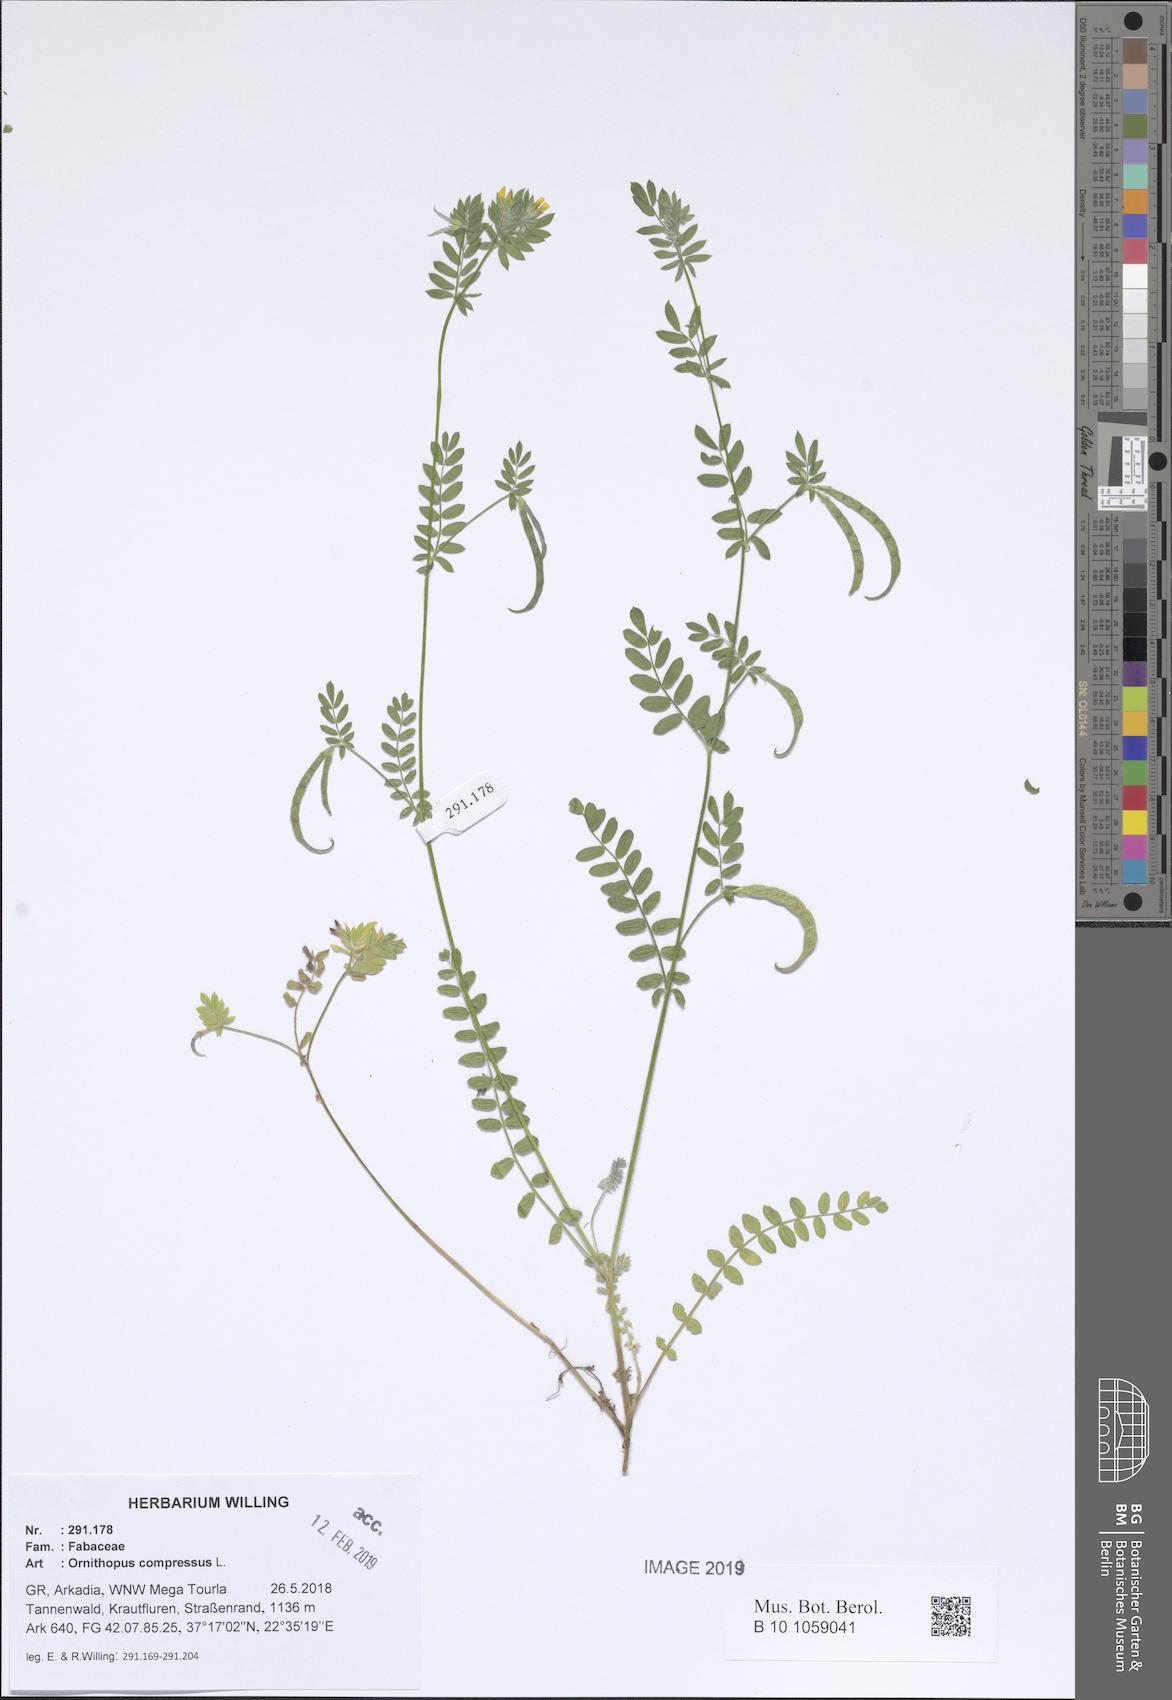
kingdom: Plantae
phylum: Tracheophyta
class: Magnoliopsida
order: Fabales
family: Fabaceae
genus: Ornithopus
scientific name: Ornithopus compressus
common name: Yellow serradella
